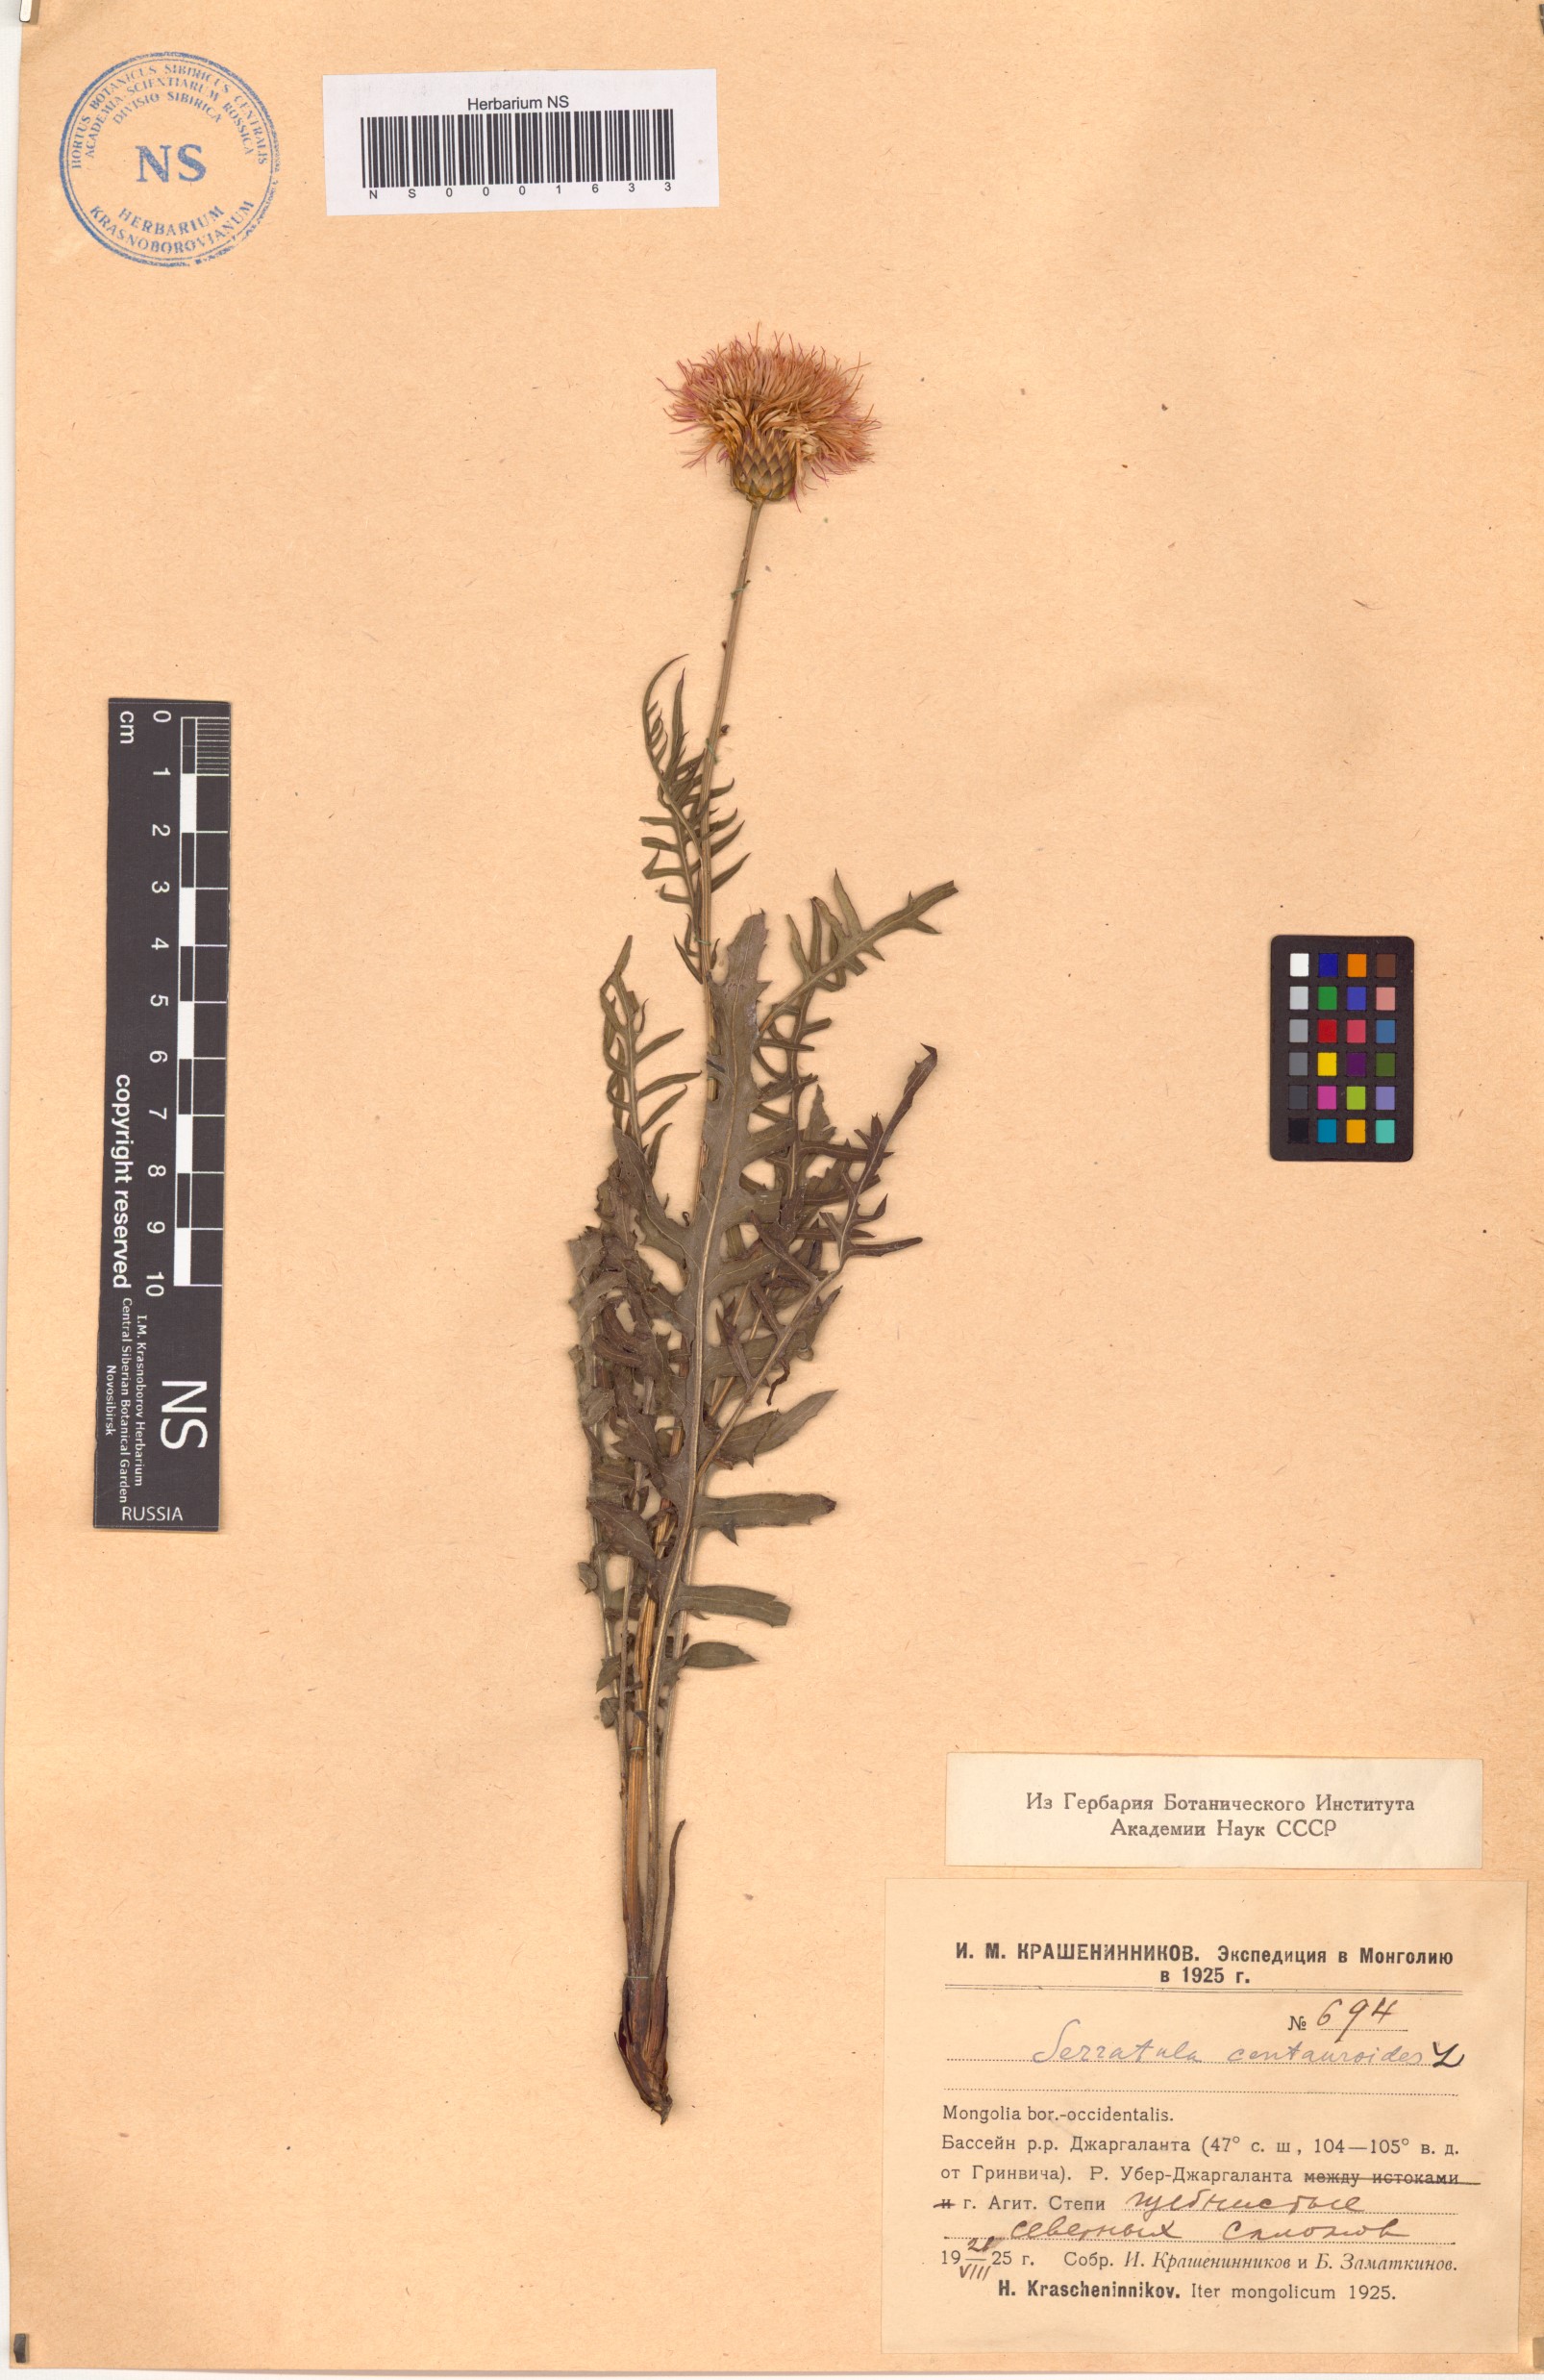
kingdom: Plantae
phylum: Tracheophyta
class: Magnoliopsida
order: Asterales
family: Asteraceae
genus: Klasea
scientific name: Klasea centauroides
